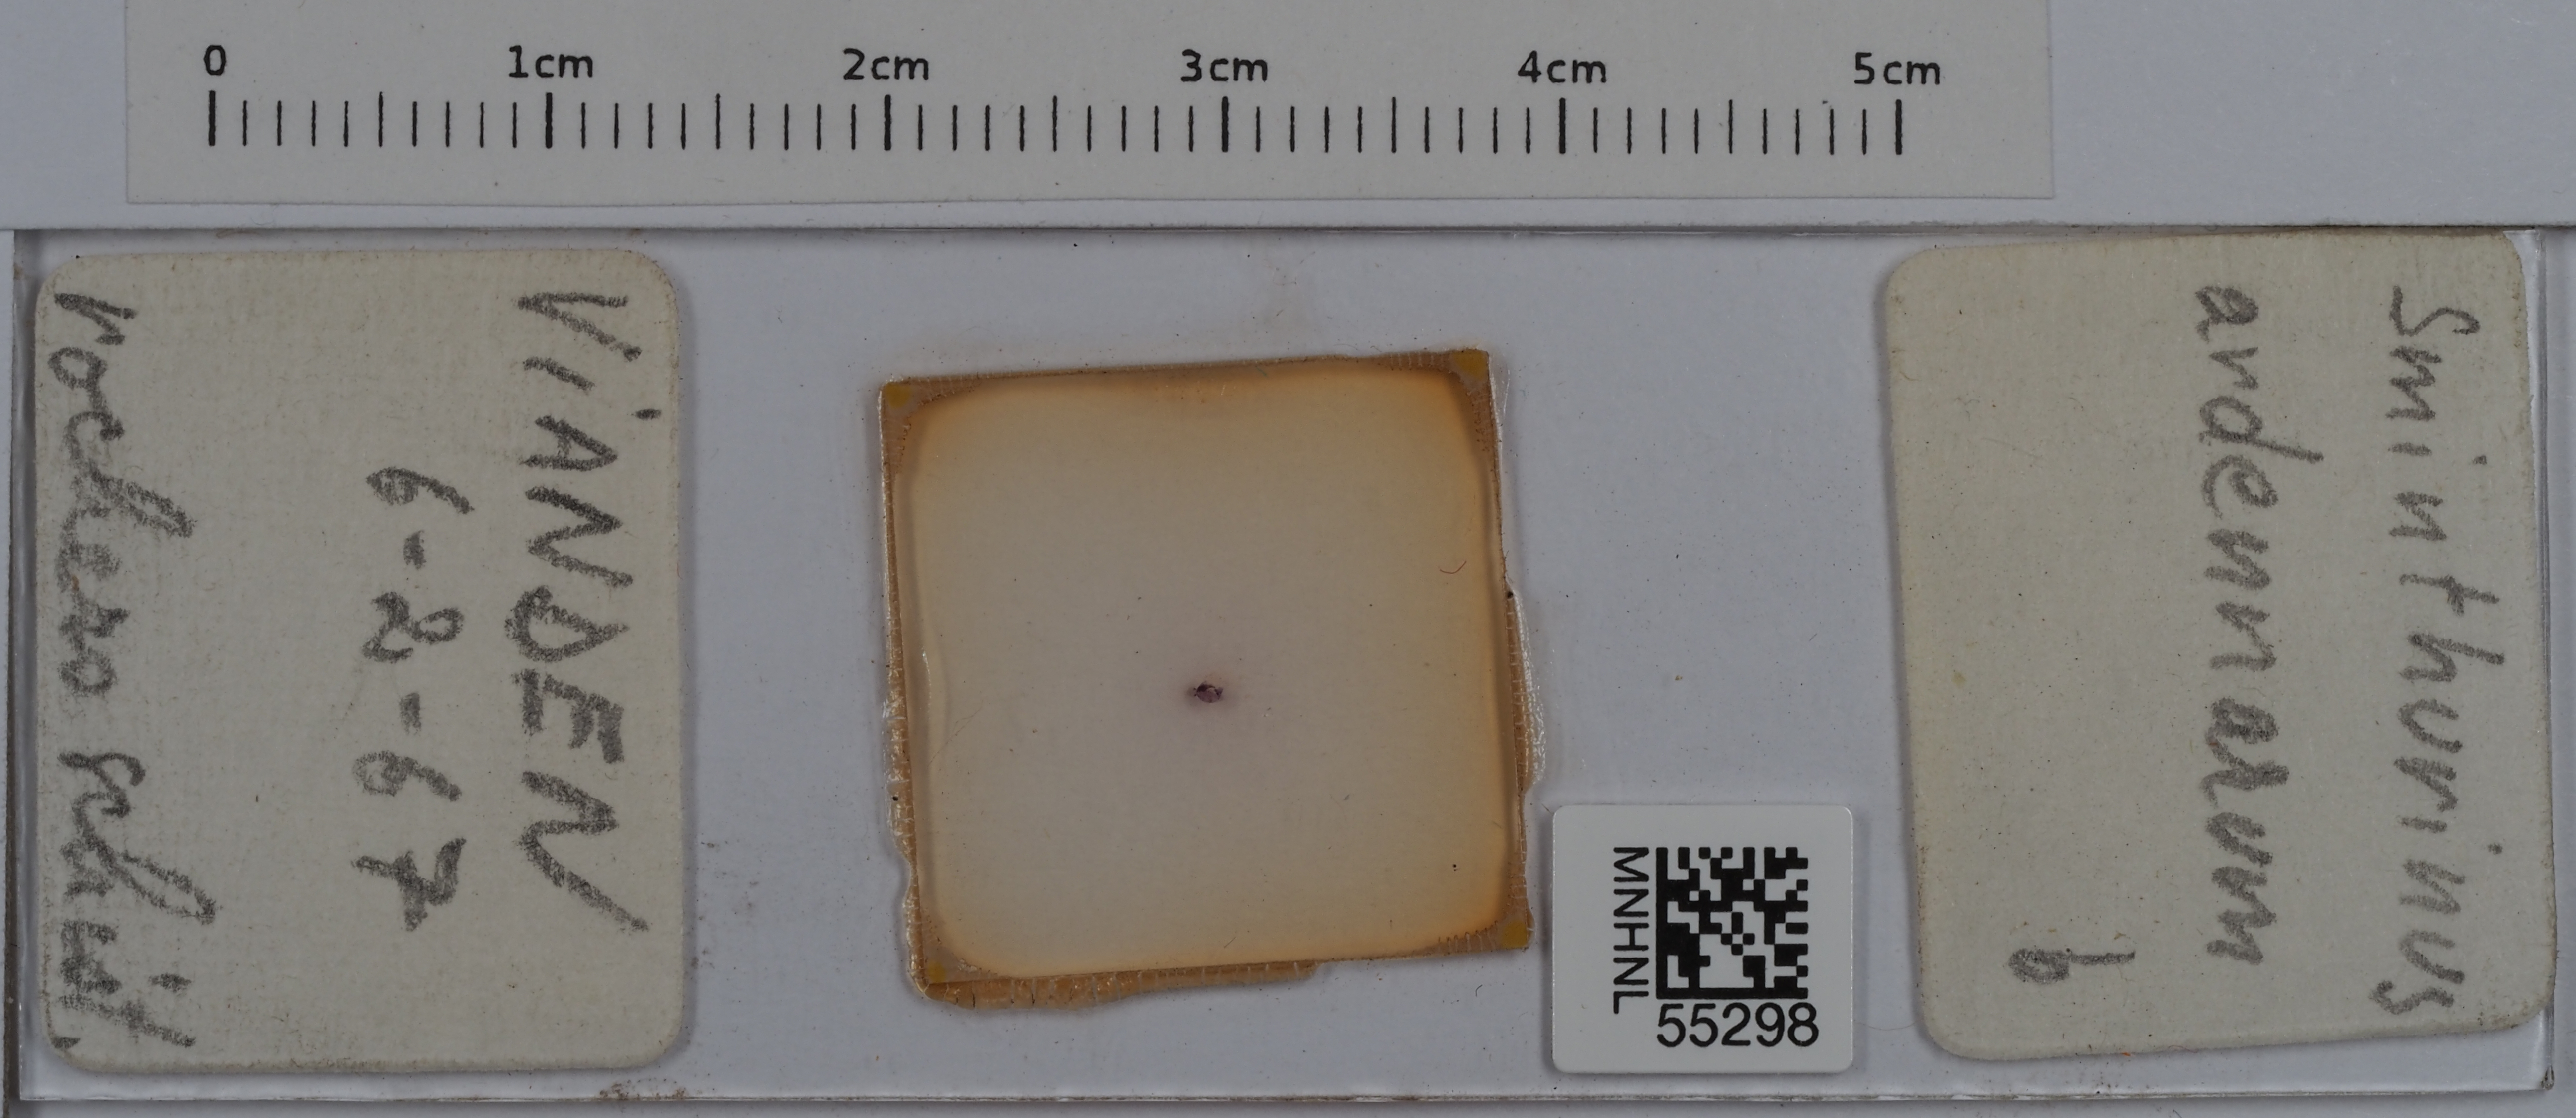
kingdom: Animalia
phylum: Arthropoda
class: Collembola
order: Symphypleona
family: Katiannidae
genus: Sminthurinus
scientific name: Sminthurinus
